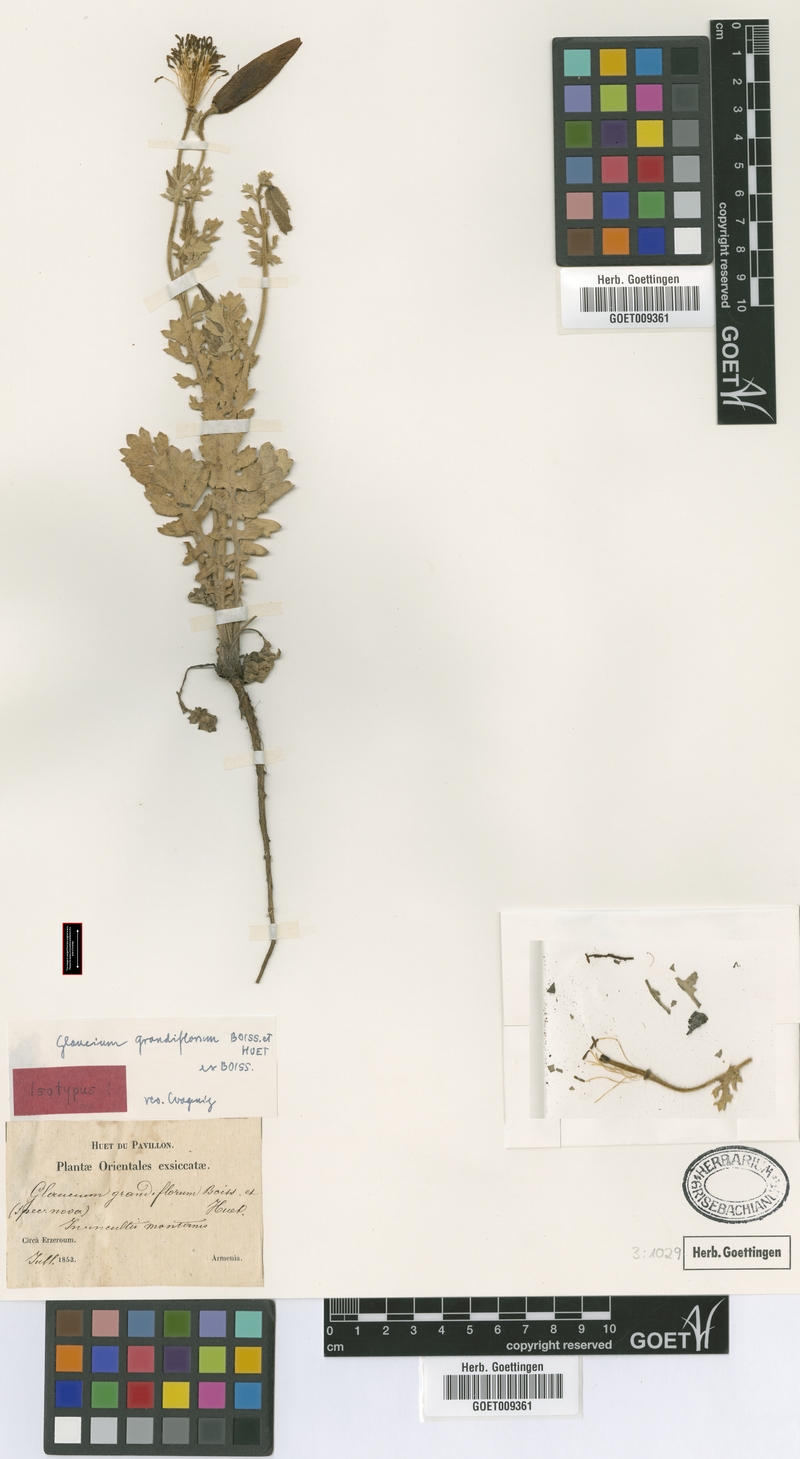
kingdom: Plantae
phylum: Tracheophyta
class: Magnoliopsida
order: Ranunculales
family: Papaveraceae
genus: Glaucium
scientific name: Glaucium grandiflorum
